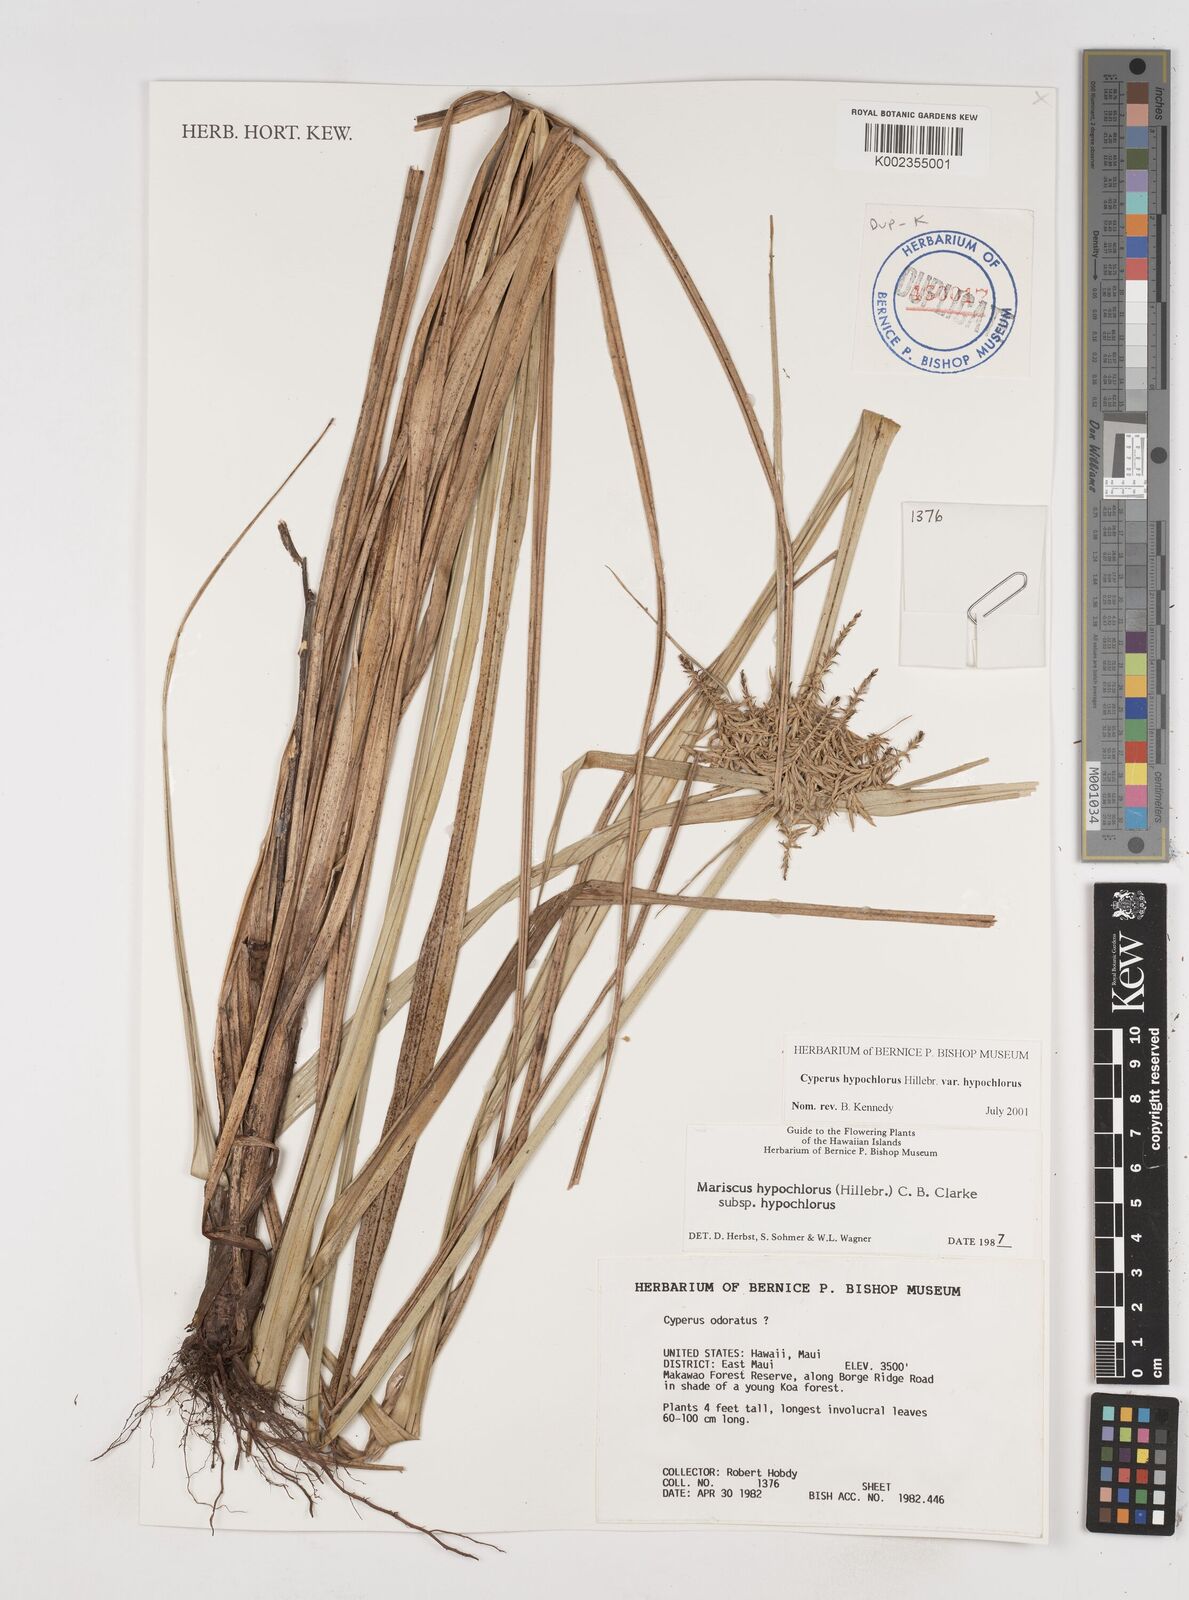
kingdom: Plantae
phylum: Tracheophyta
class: Liliopsida
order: Poales
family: Cyperaceae
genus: Cyperus
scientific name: Cyperus hypochlorus
